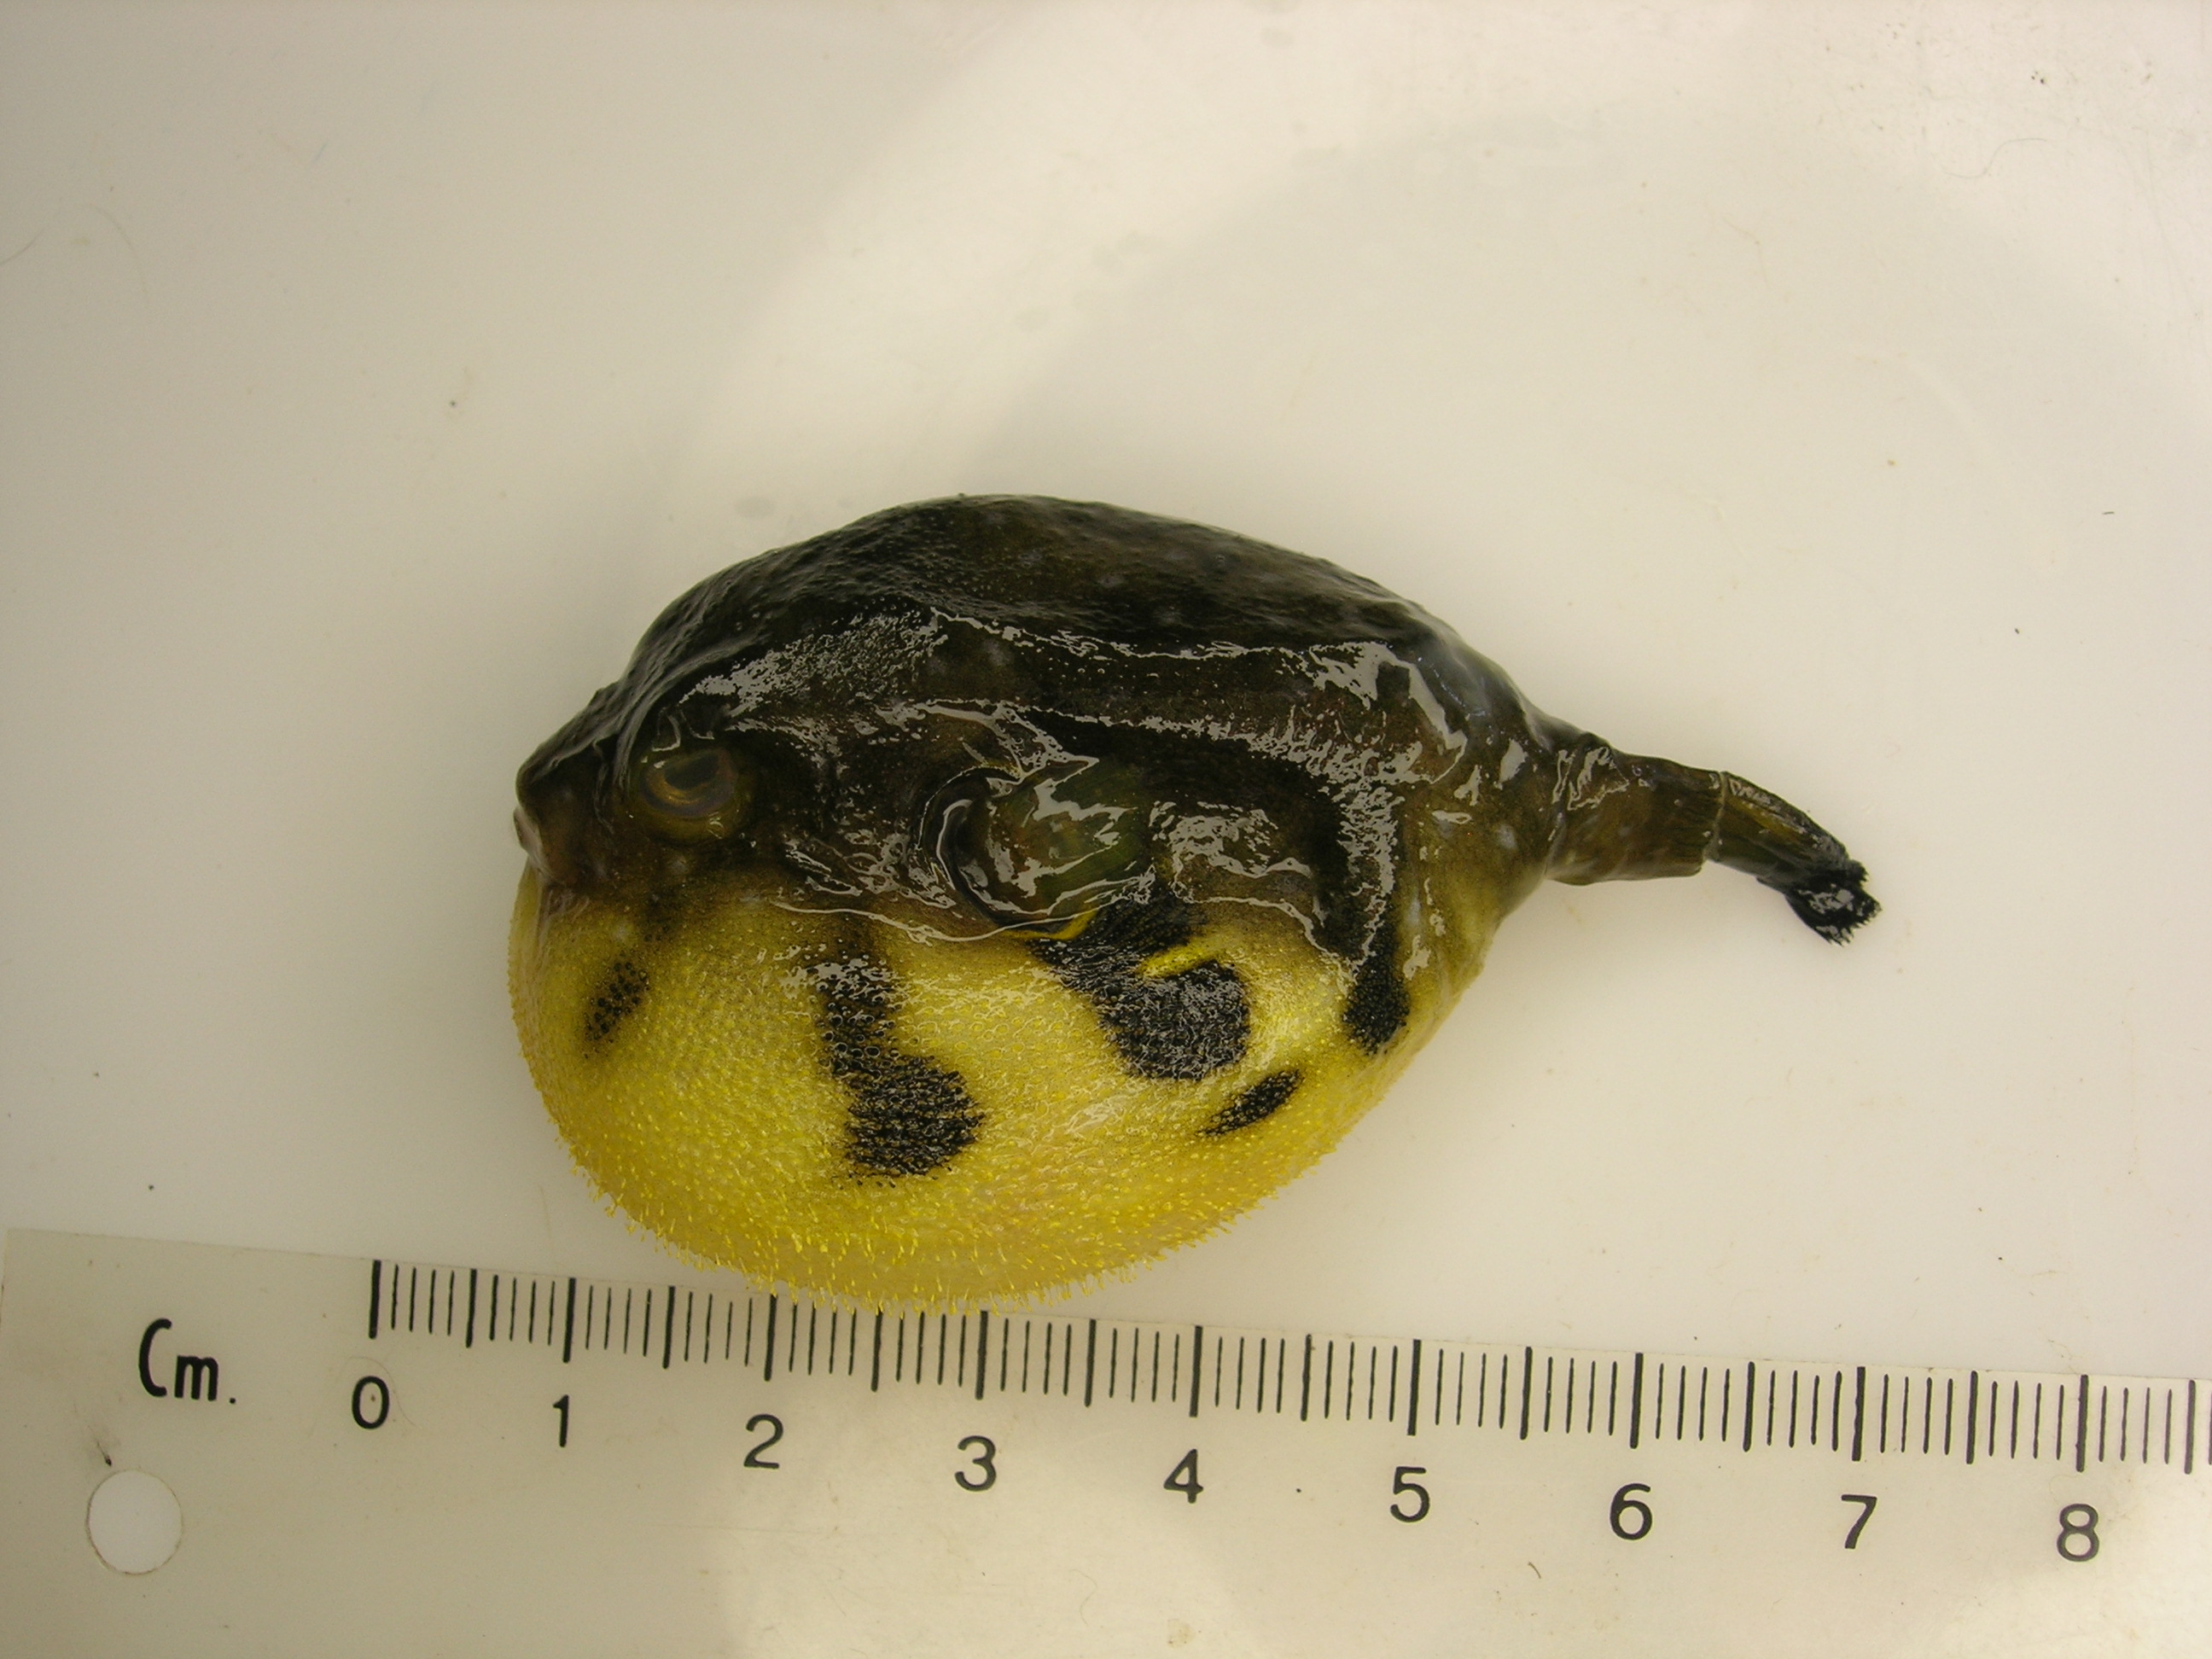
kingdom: Animalia
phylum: Chordata
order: Tetraodontiformes
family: Tetraodontidae
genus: Arothron
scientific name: Arothron hispidus
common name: Stripebelly puffer
